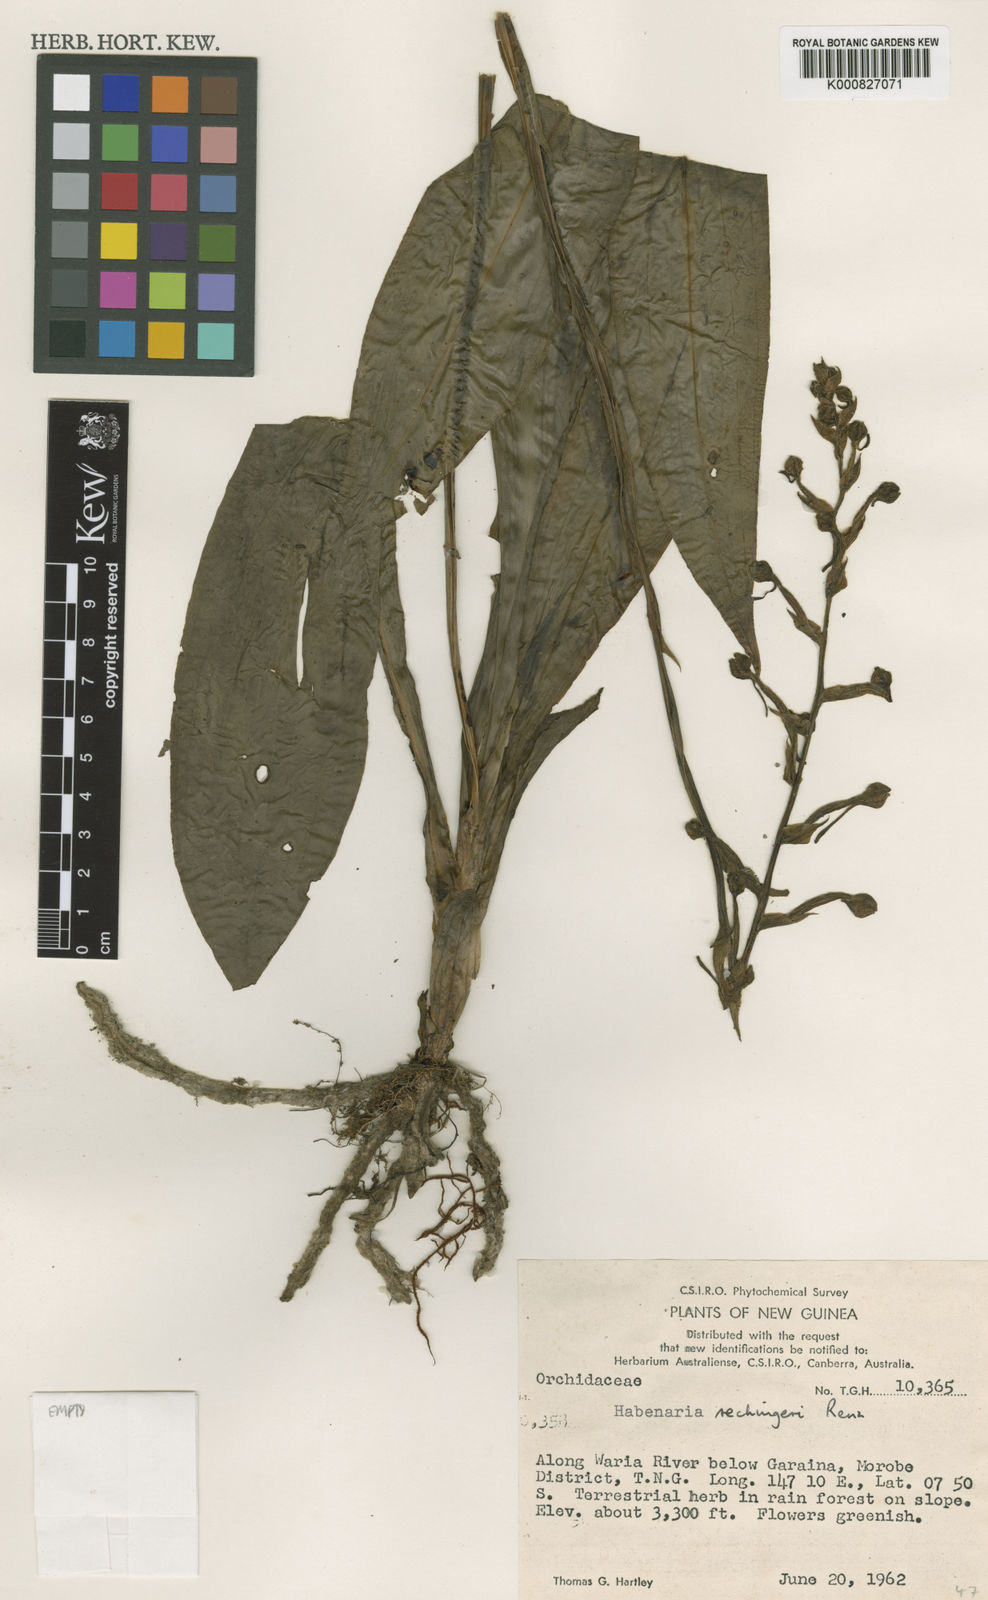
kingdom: Plantae
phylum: Tracheophyta
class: Liliopsida
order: Asparagales
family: Orchidaceae
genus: Habenaria
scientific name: Habenaria rechingeri
